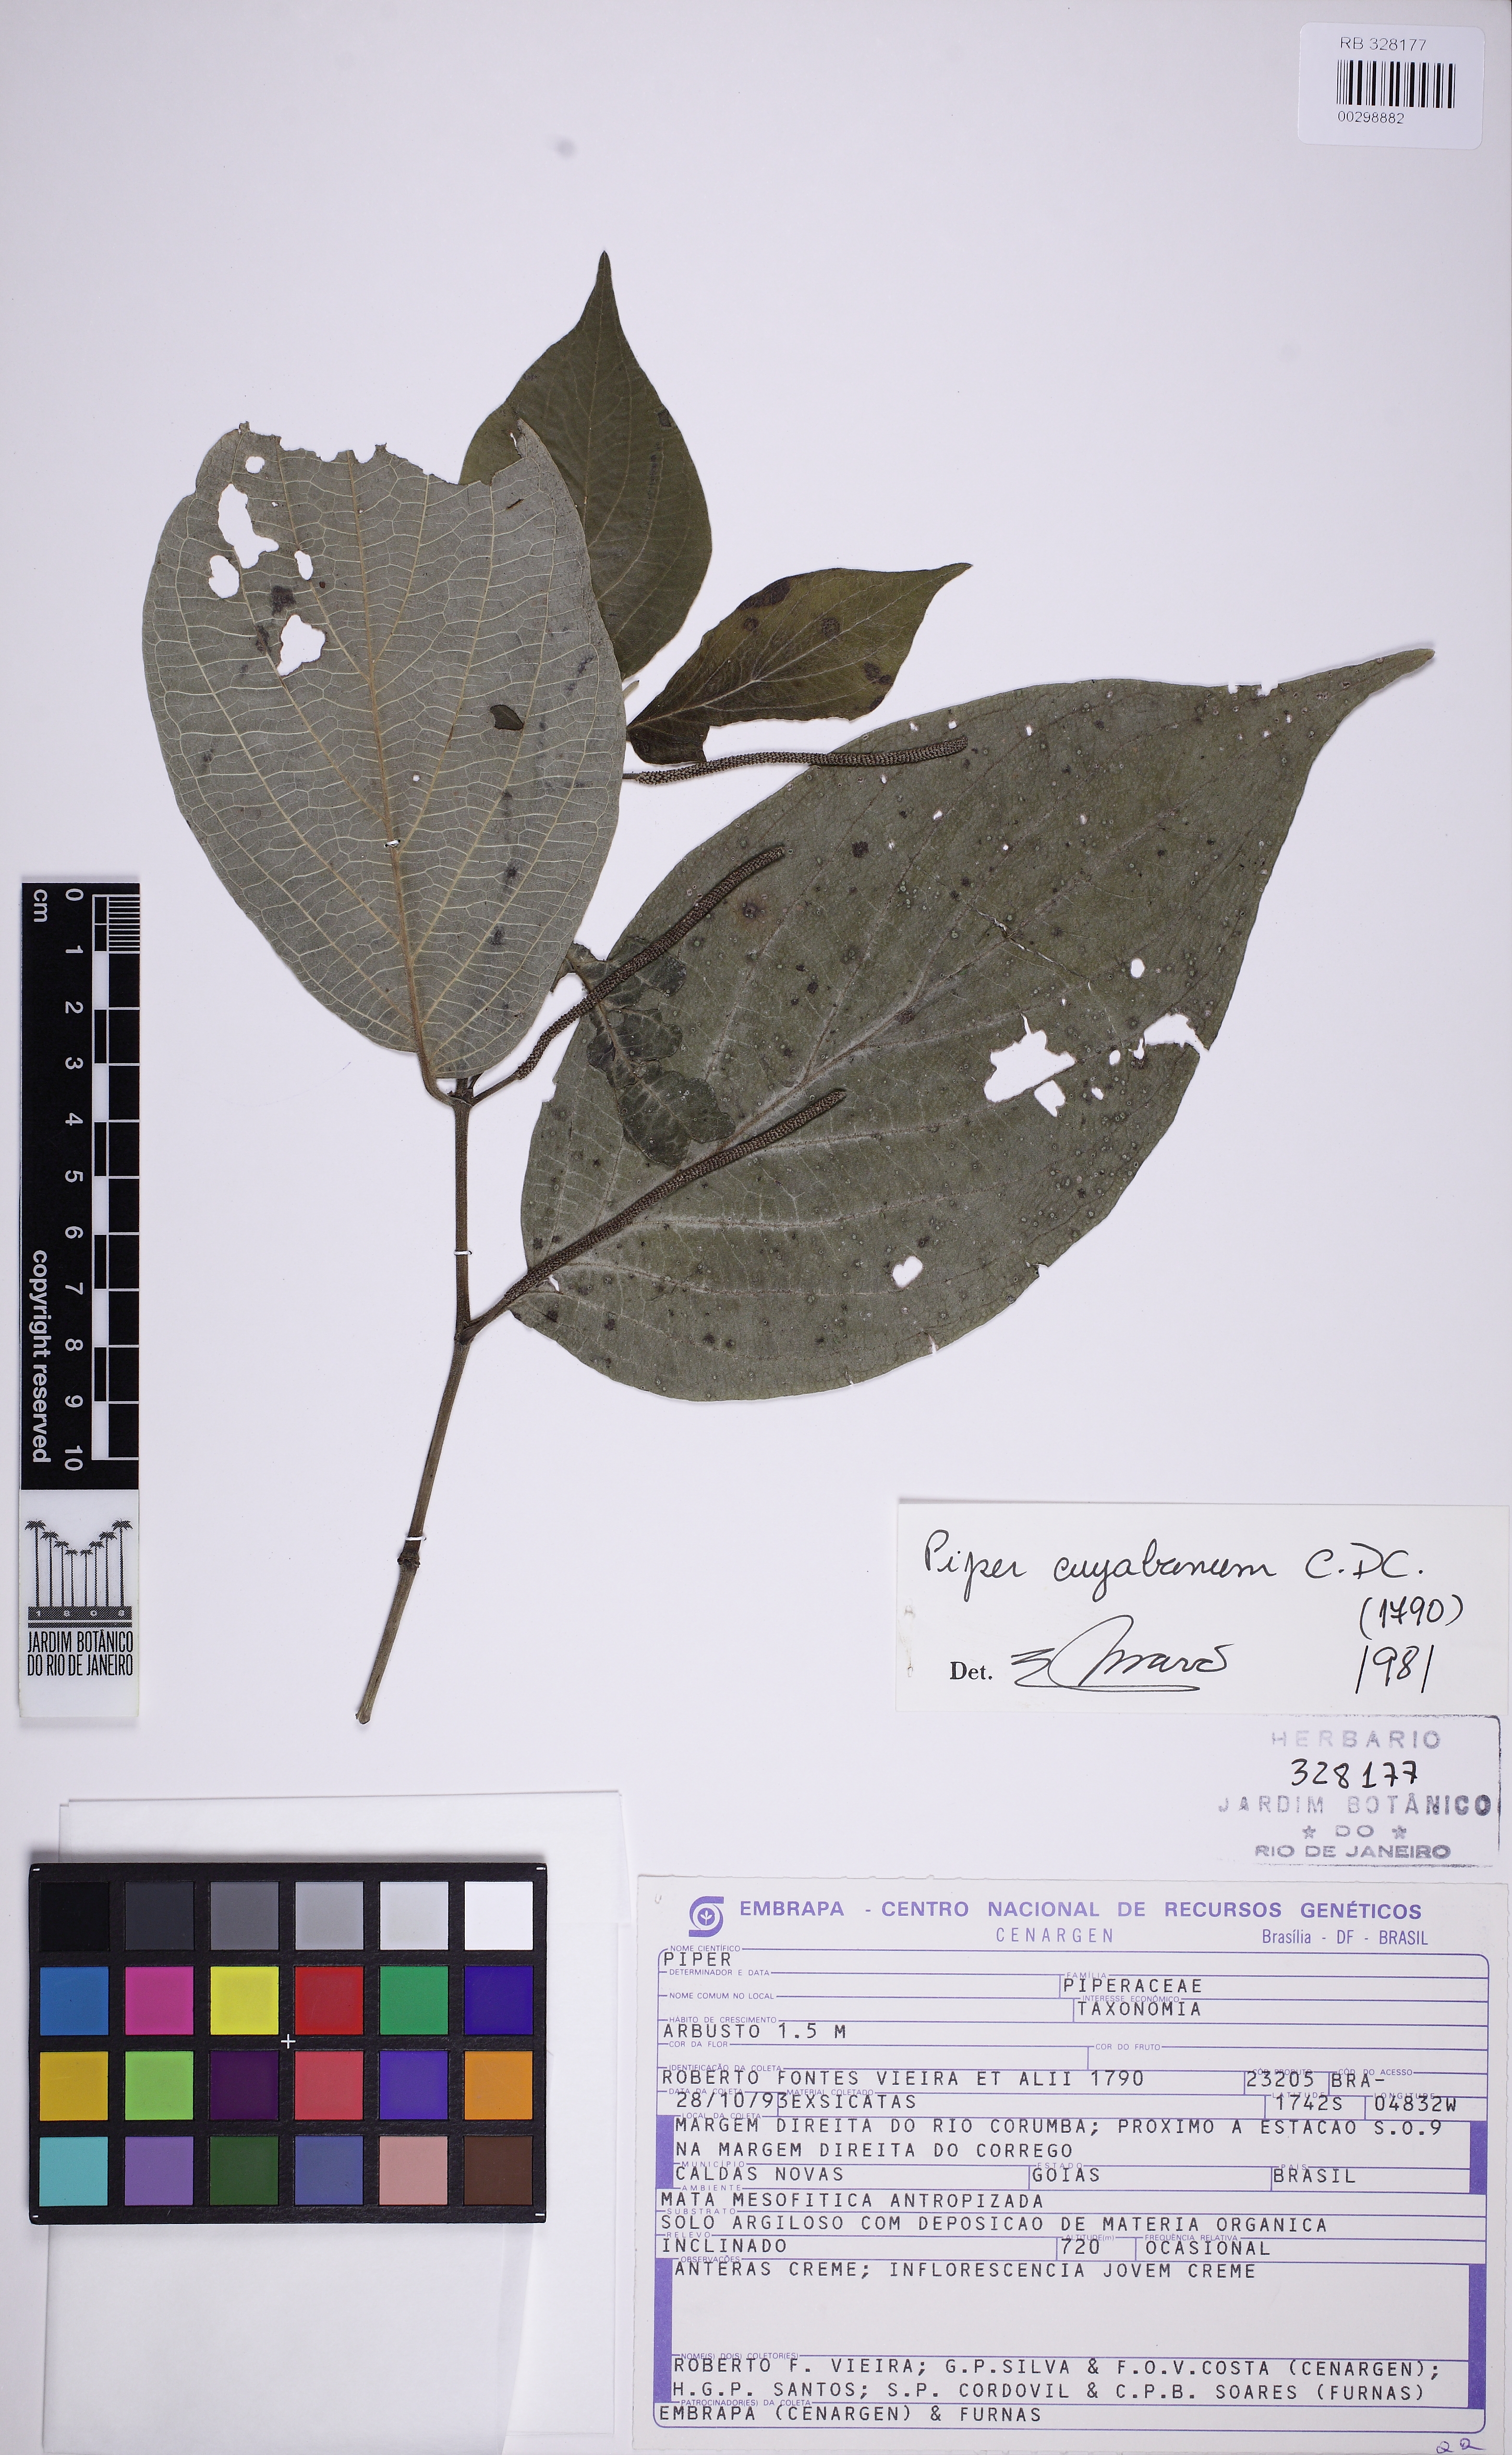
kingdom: Plantae
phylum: Tracheophyta
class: Magnoliopsida
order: Piperales
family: Piperaceae
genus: Piper
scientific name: Piper cuyabanum
